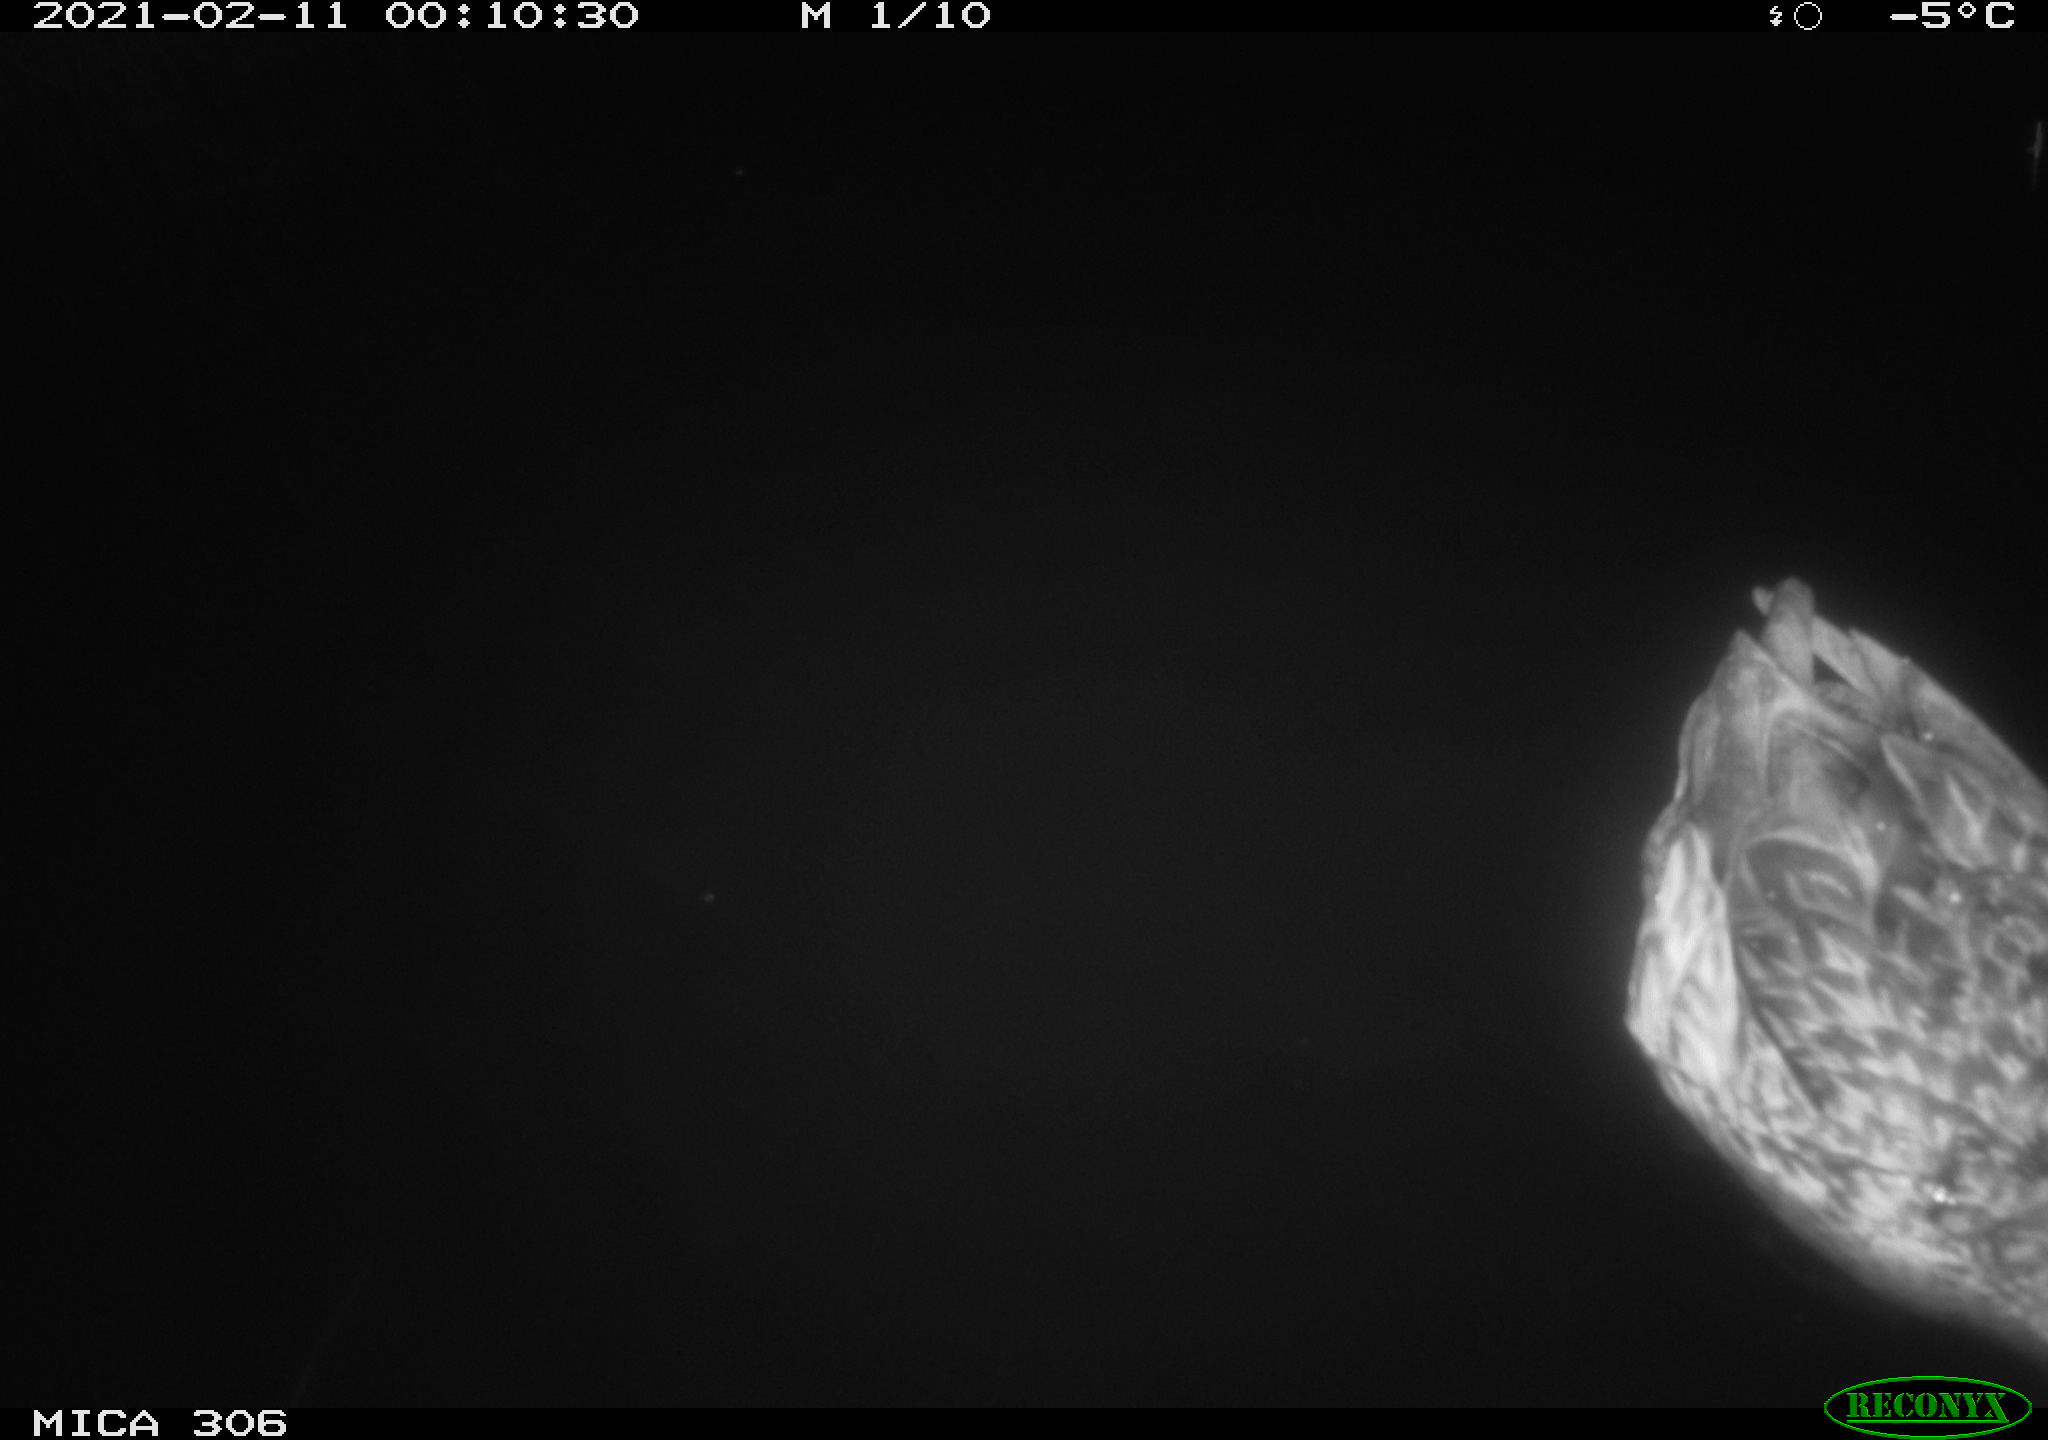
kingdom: Animalia
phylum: Chordata
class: Aves
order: Anseriformes
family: Anatidae
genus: Anas
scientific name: Anas platyrhynchos
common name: Mallard
